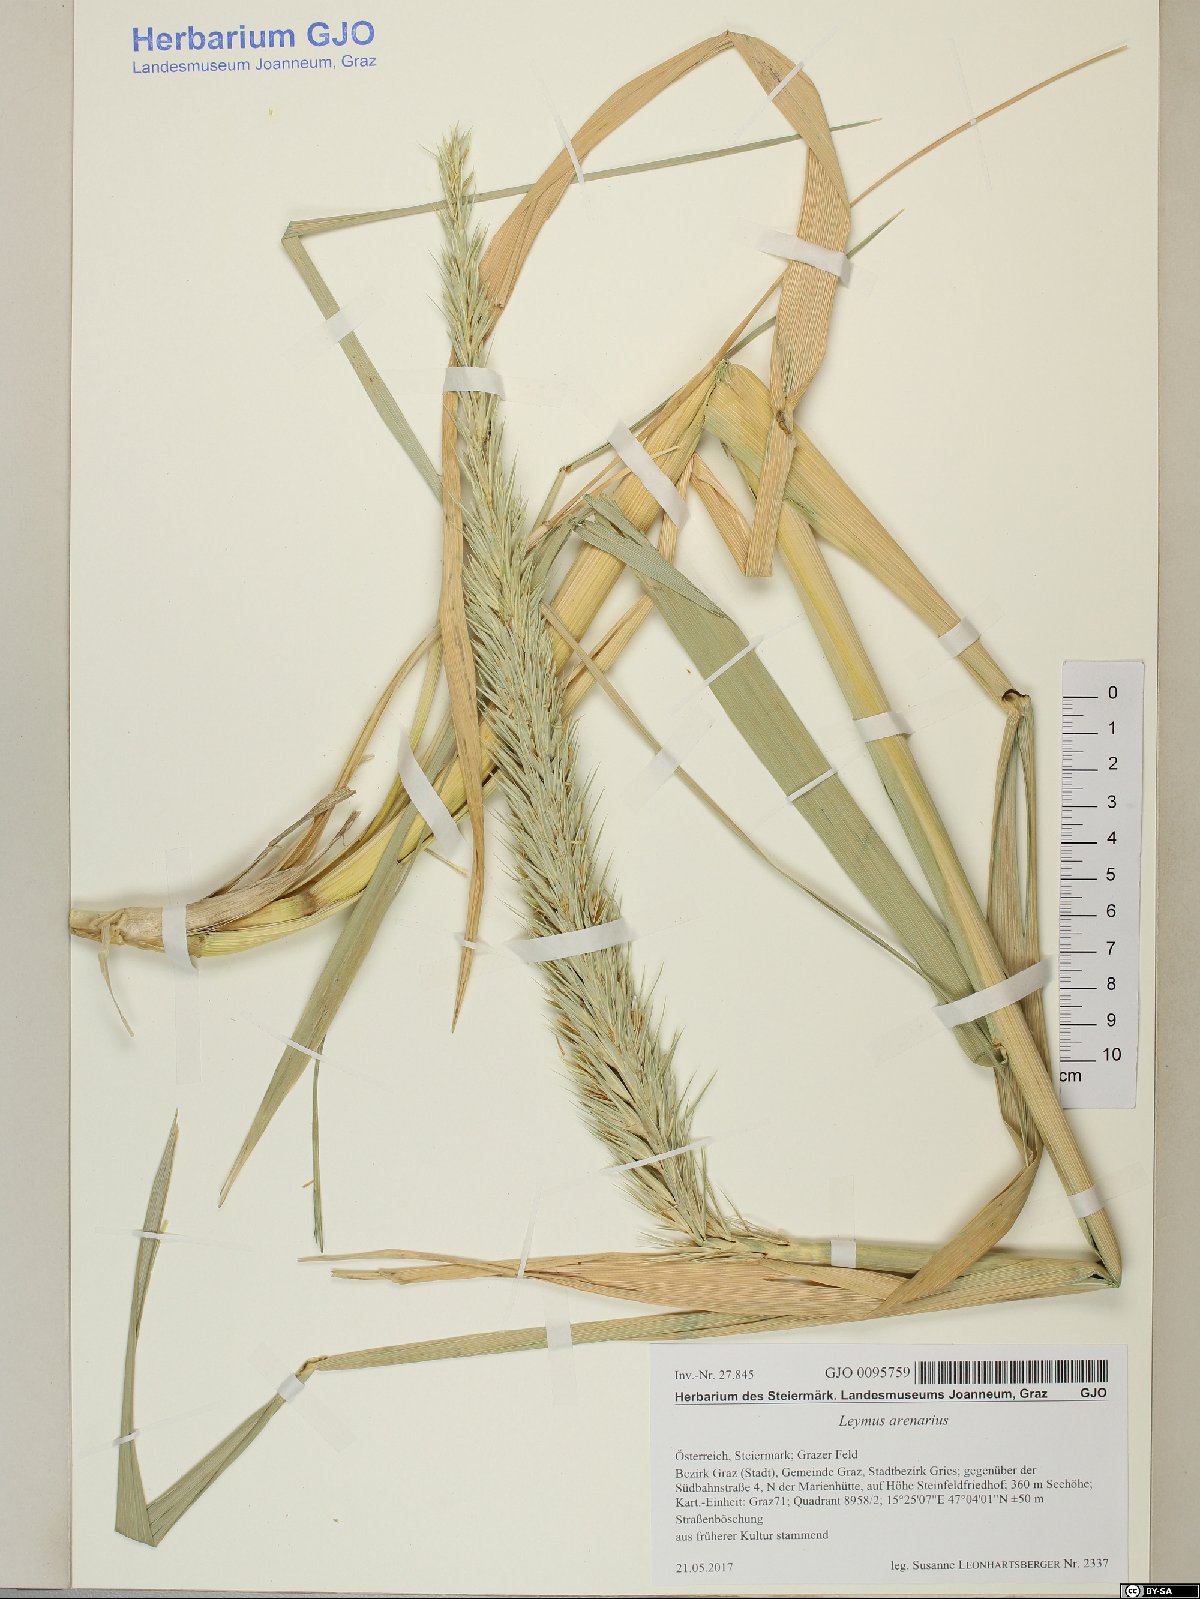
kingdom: Plantae
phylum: Tracheophyta
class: Liliopsida
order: Poales
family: Poaceae
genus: Leymus
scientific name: Leymus arenarius
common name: Lyme-grass
